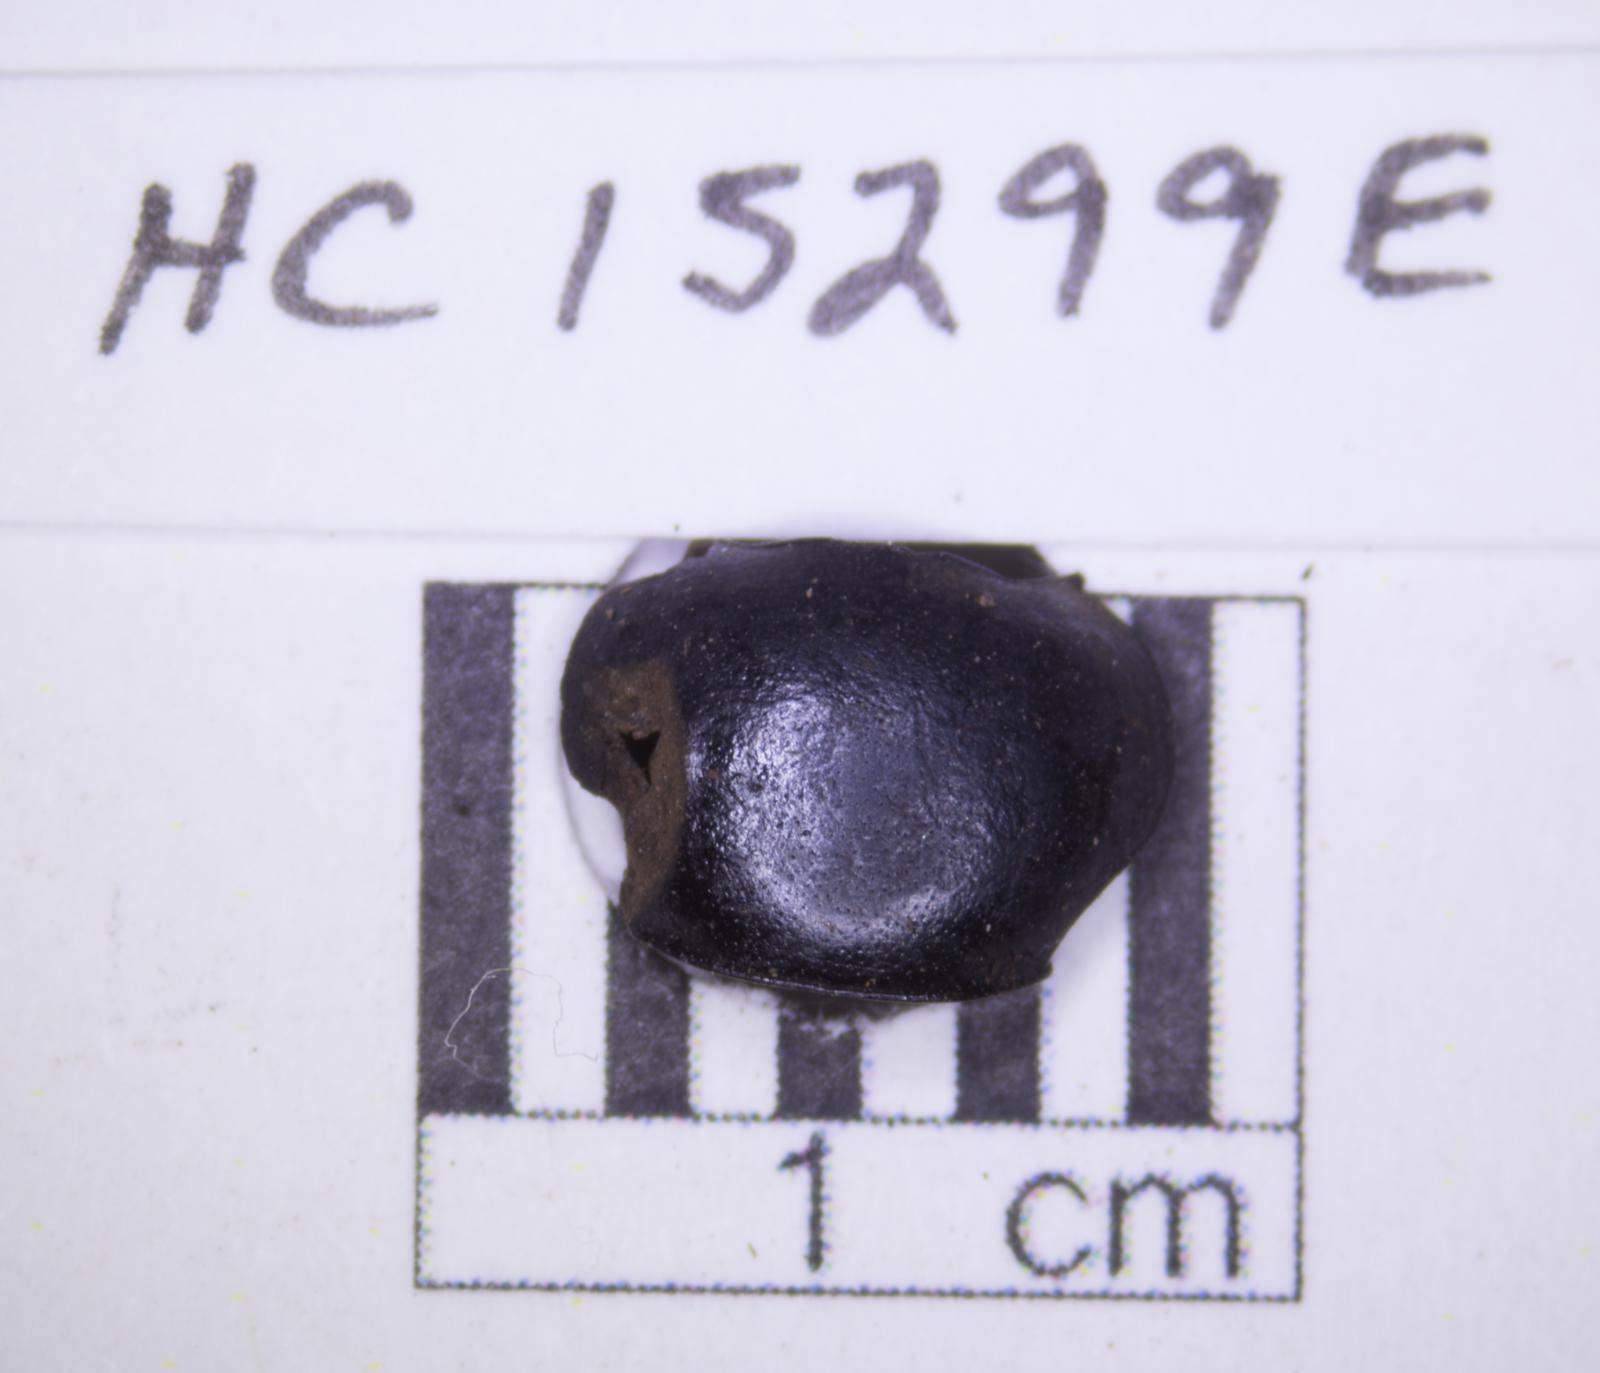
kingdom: Animalia
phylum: Arthropoda
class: Insecta
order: Coleoptera
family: Tenebrionidae
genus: Eleodes
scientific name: Eleodes acuticauda
